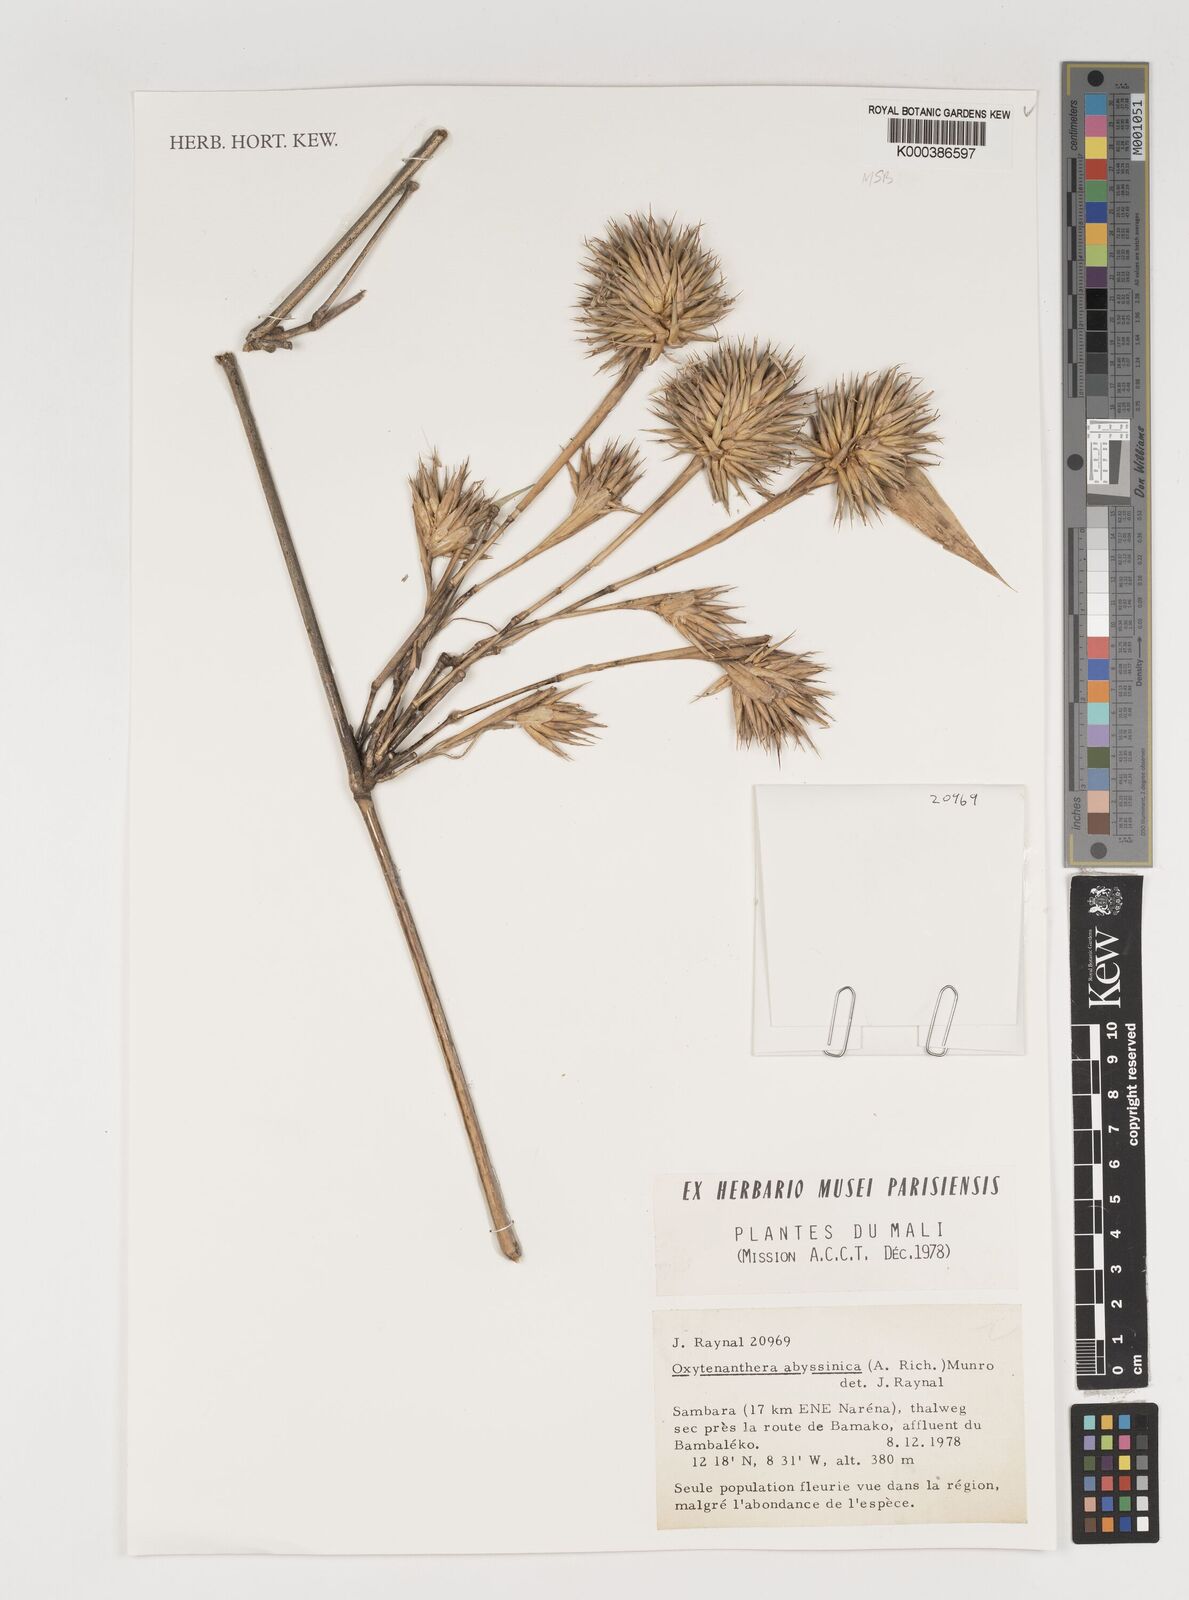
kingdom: Plantae
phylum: Tracheophyta
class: Liliopsida
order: Poales
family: Poaceae
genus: Oxytenanthera
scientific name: Oxytenanthera abyssinica
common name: Wine bamboo
